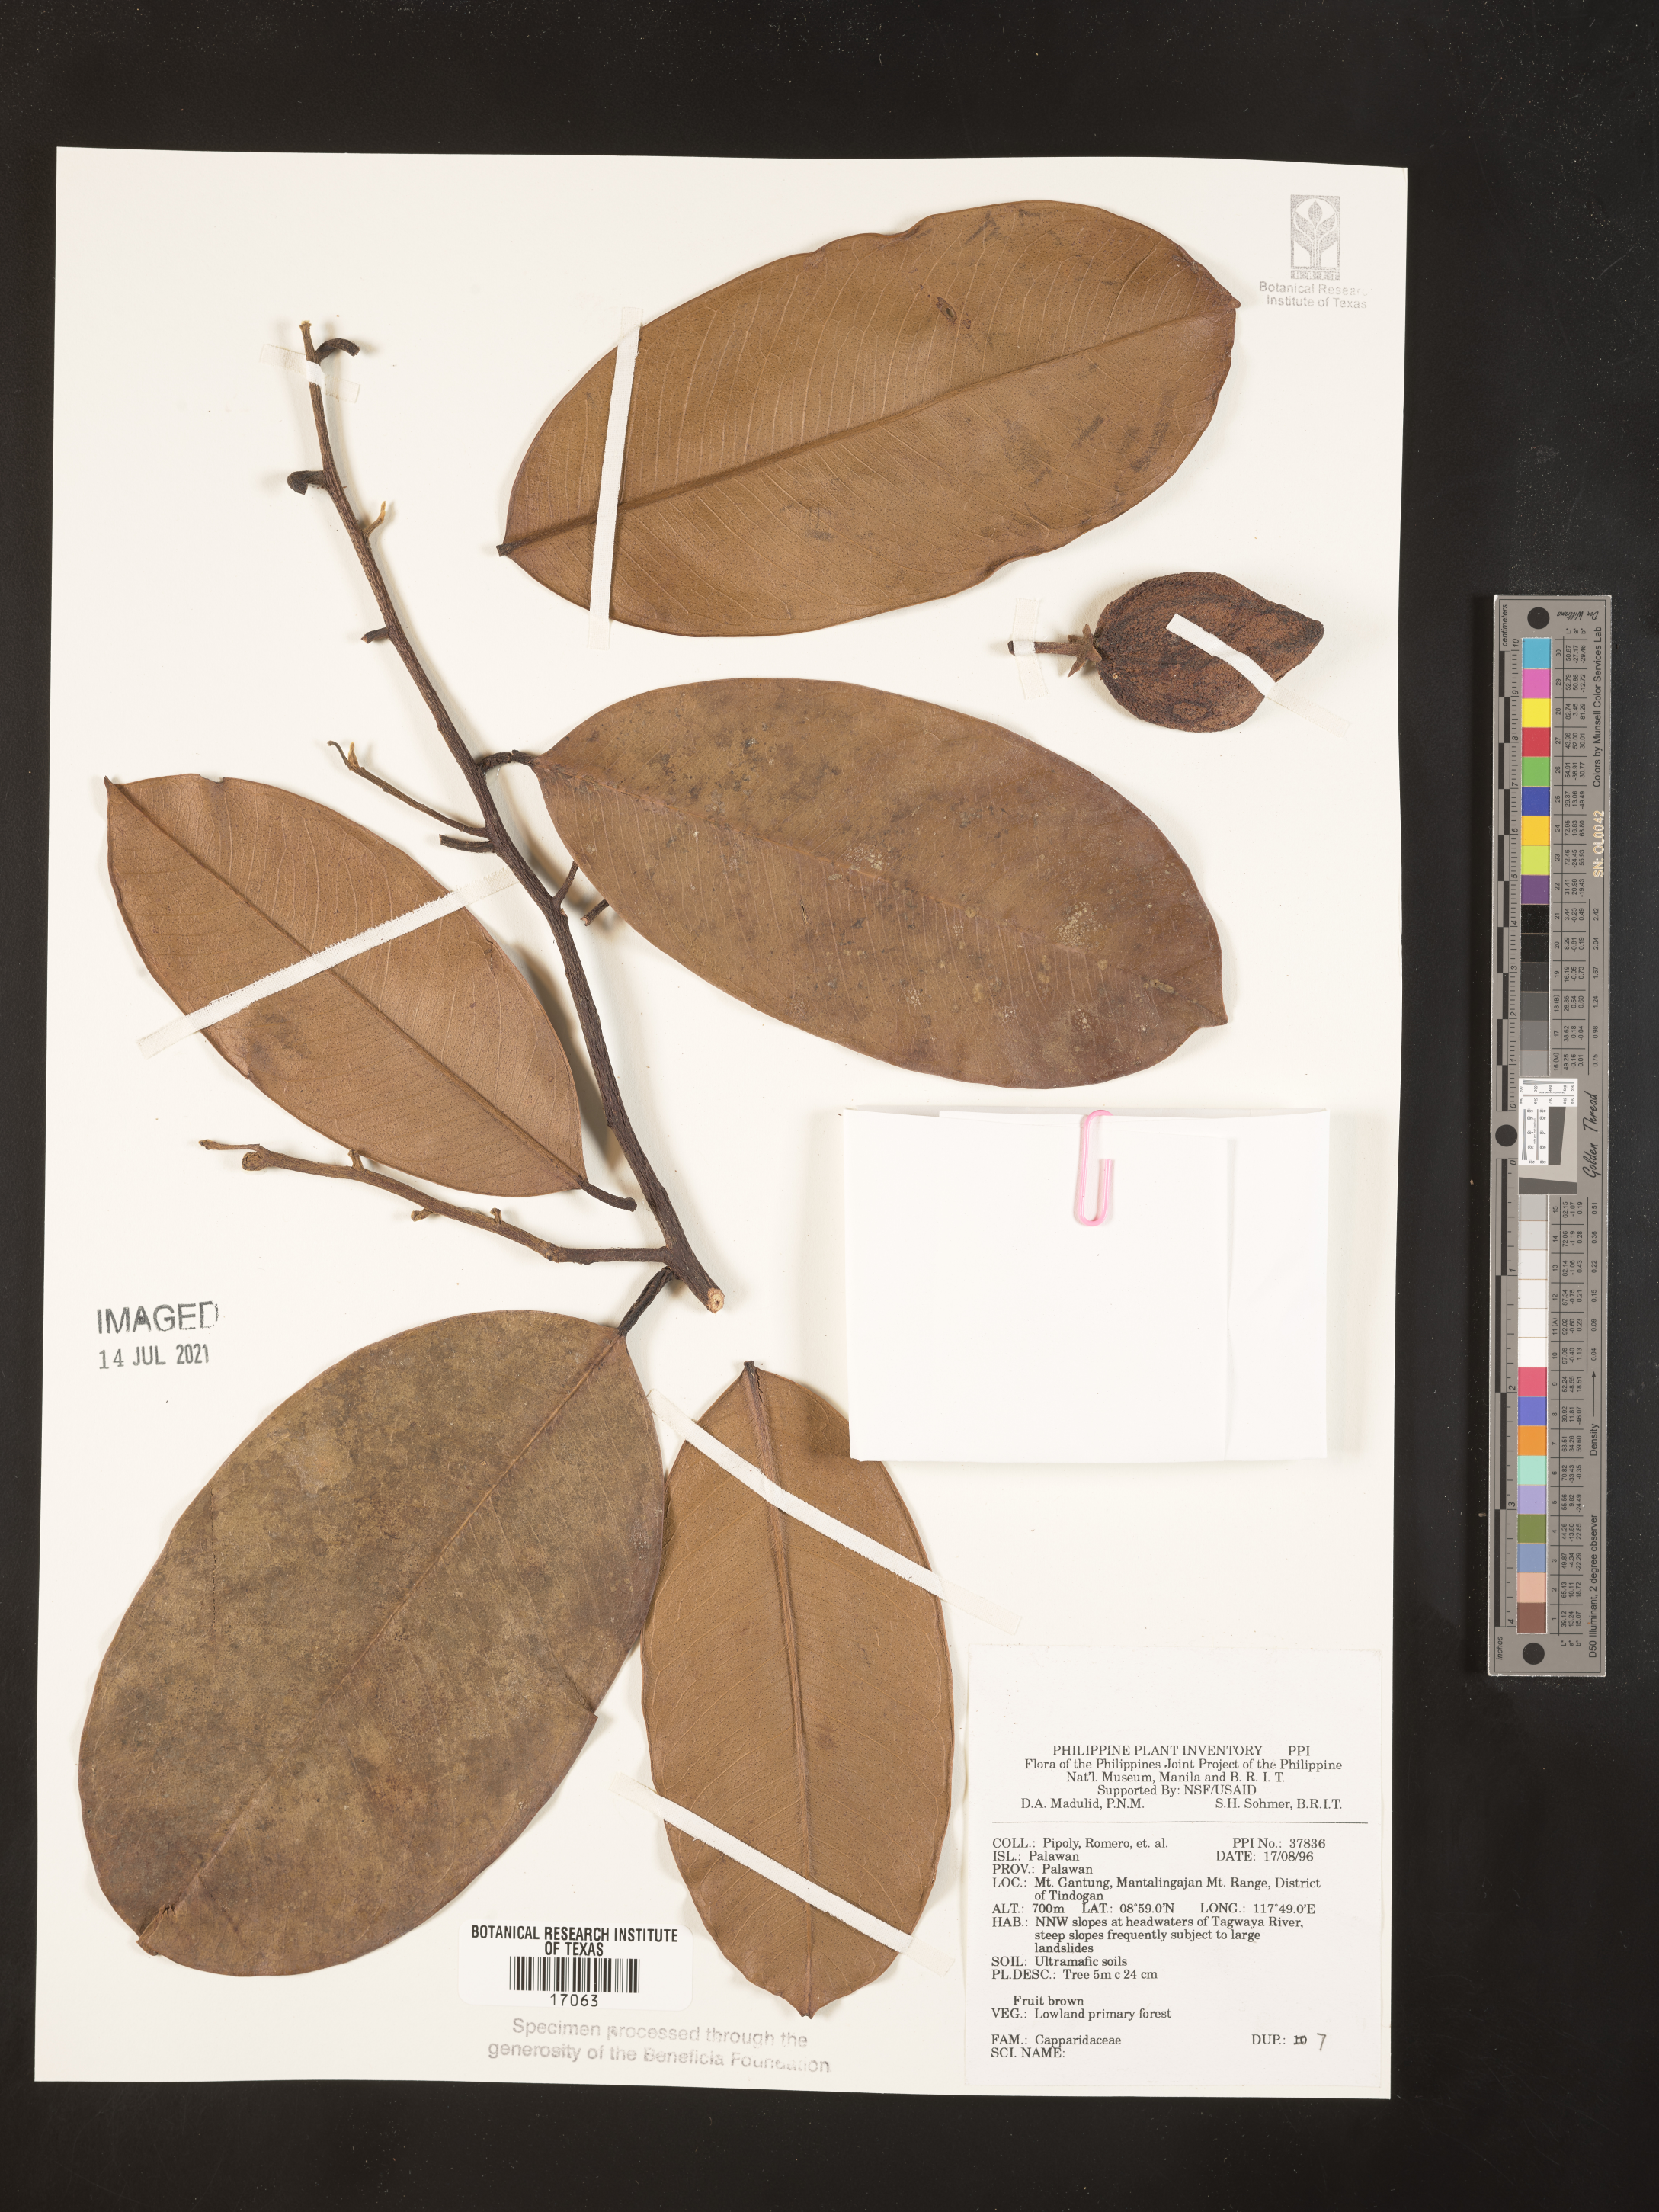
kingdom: Plantae
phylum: Tracheophyta
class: Magnoliopsida
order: Brassicales
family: Capparaceae
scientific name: Capparaceae
